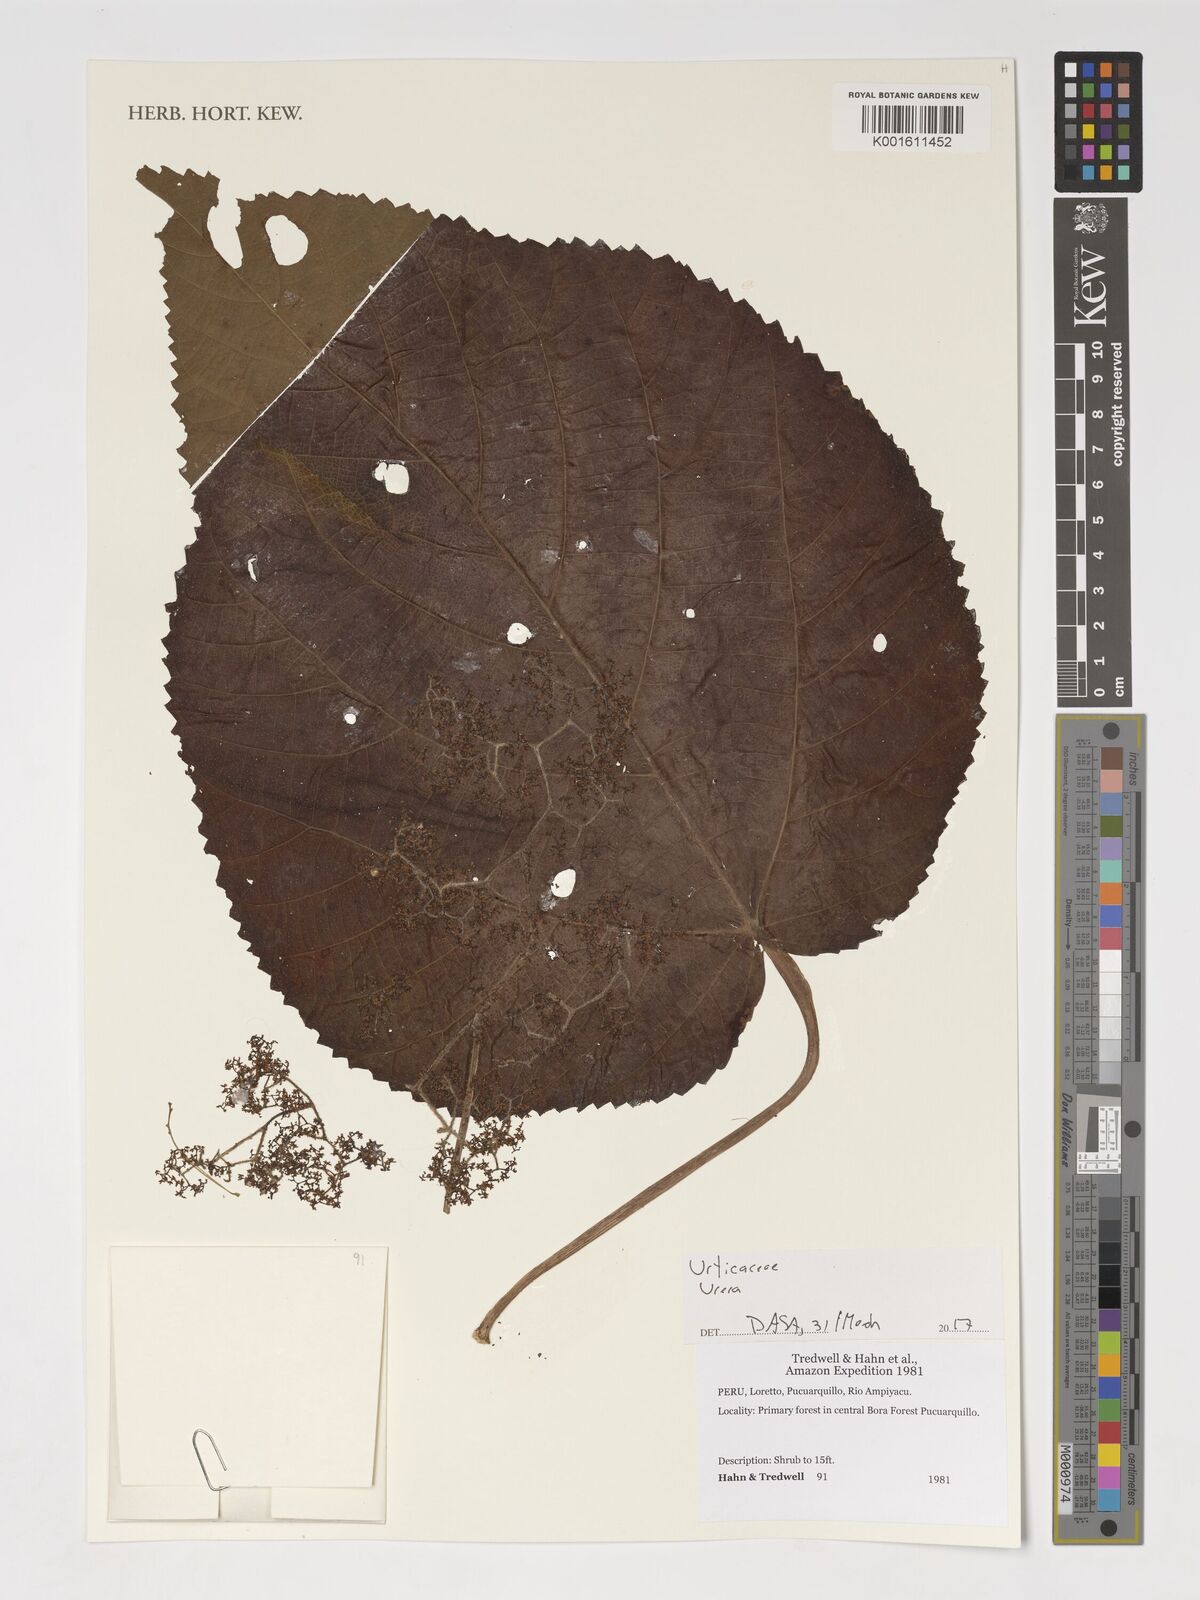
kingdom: Plantae
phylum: Tracheophyta
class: Magnoliopsida
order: Rosales
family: Urticaceae
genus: Urera
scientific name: Urera
